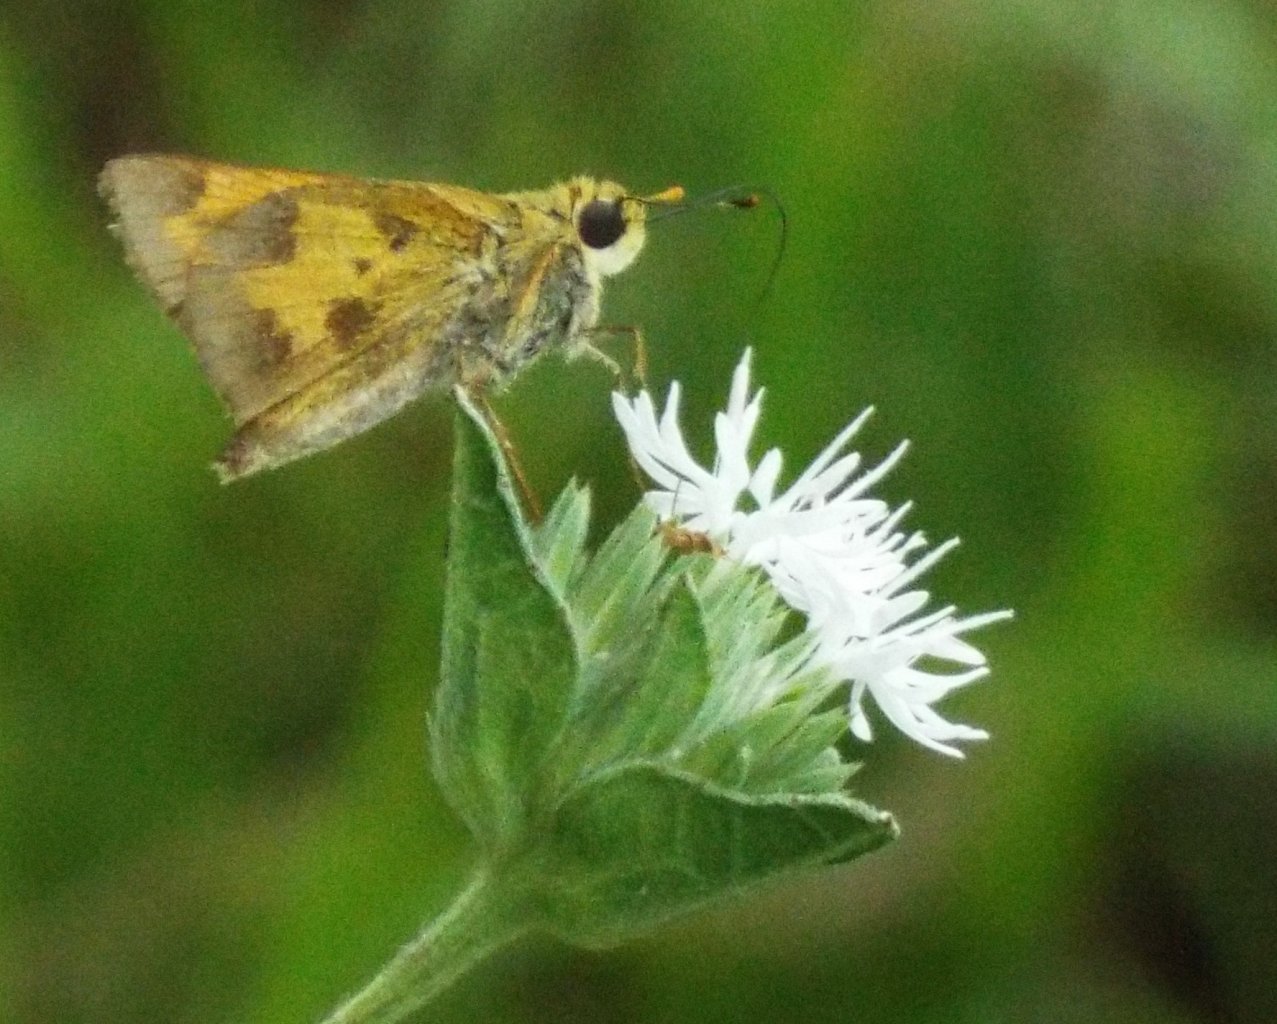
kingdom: Animalia
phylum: Arthropoda
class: Insecta
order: Lepidoptera
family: Hesperiidae
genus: Polites
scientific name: Polites vibex
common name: Whirlabout
